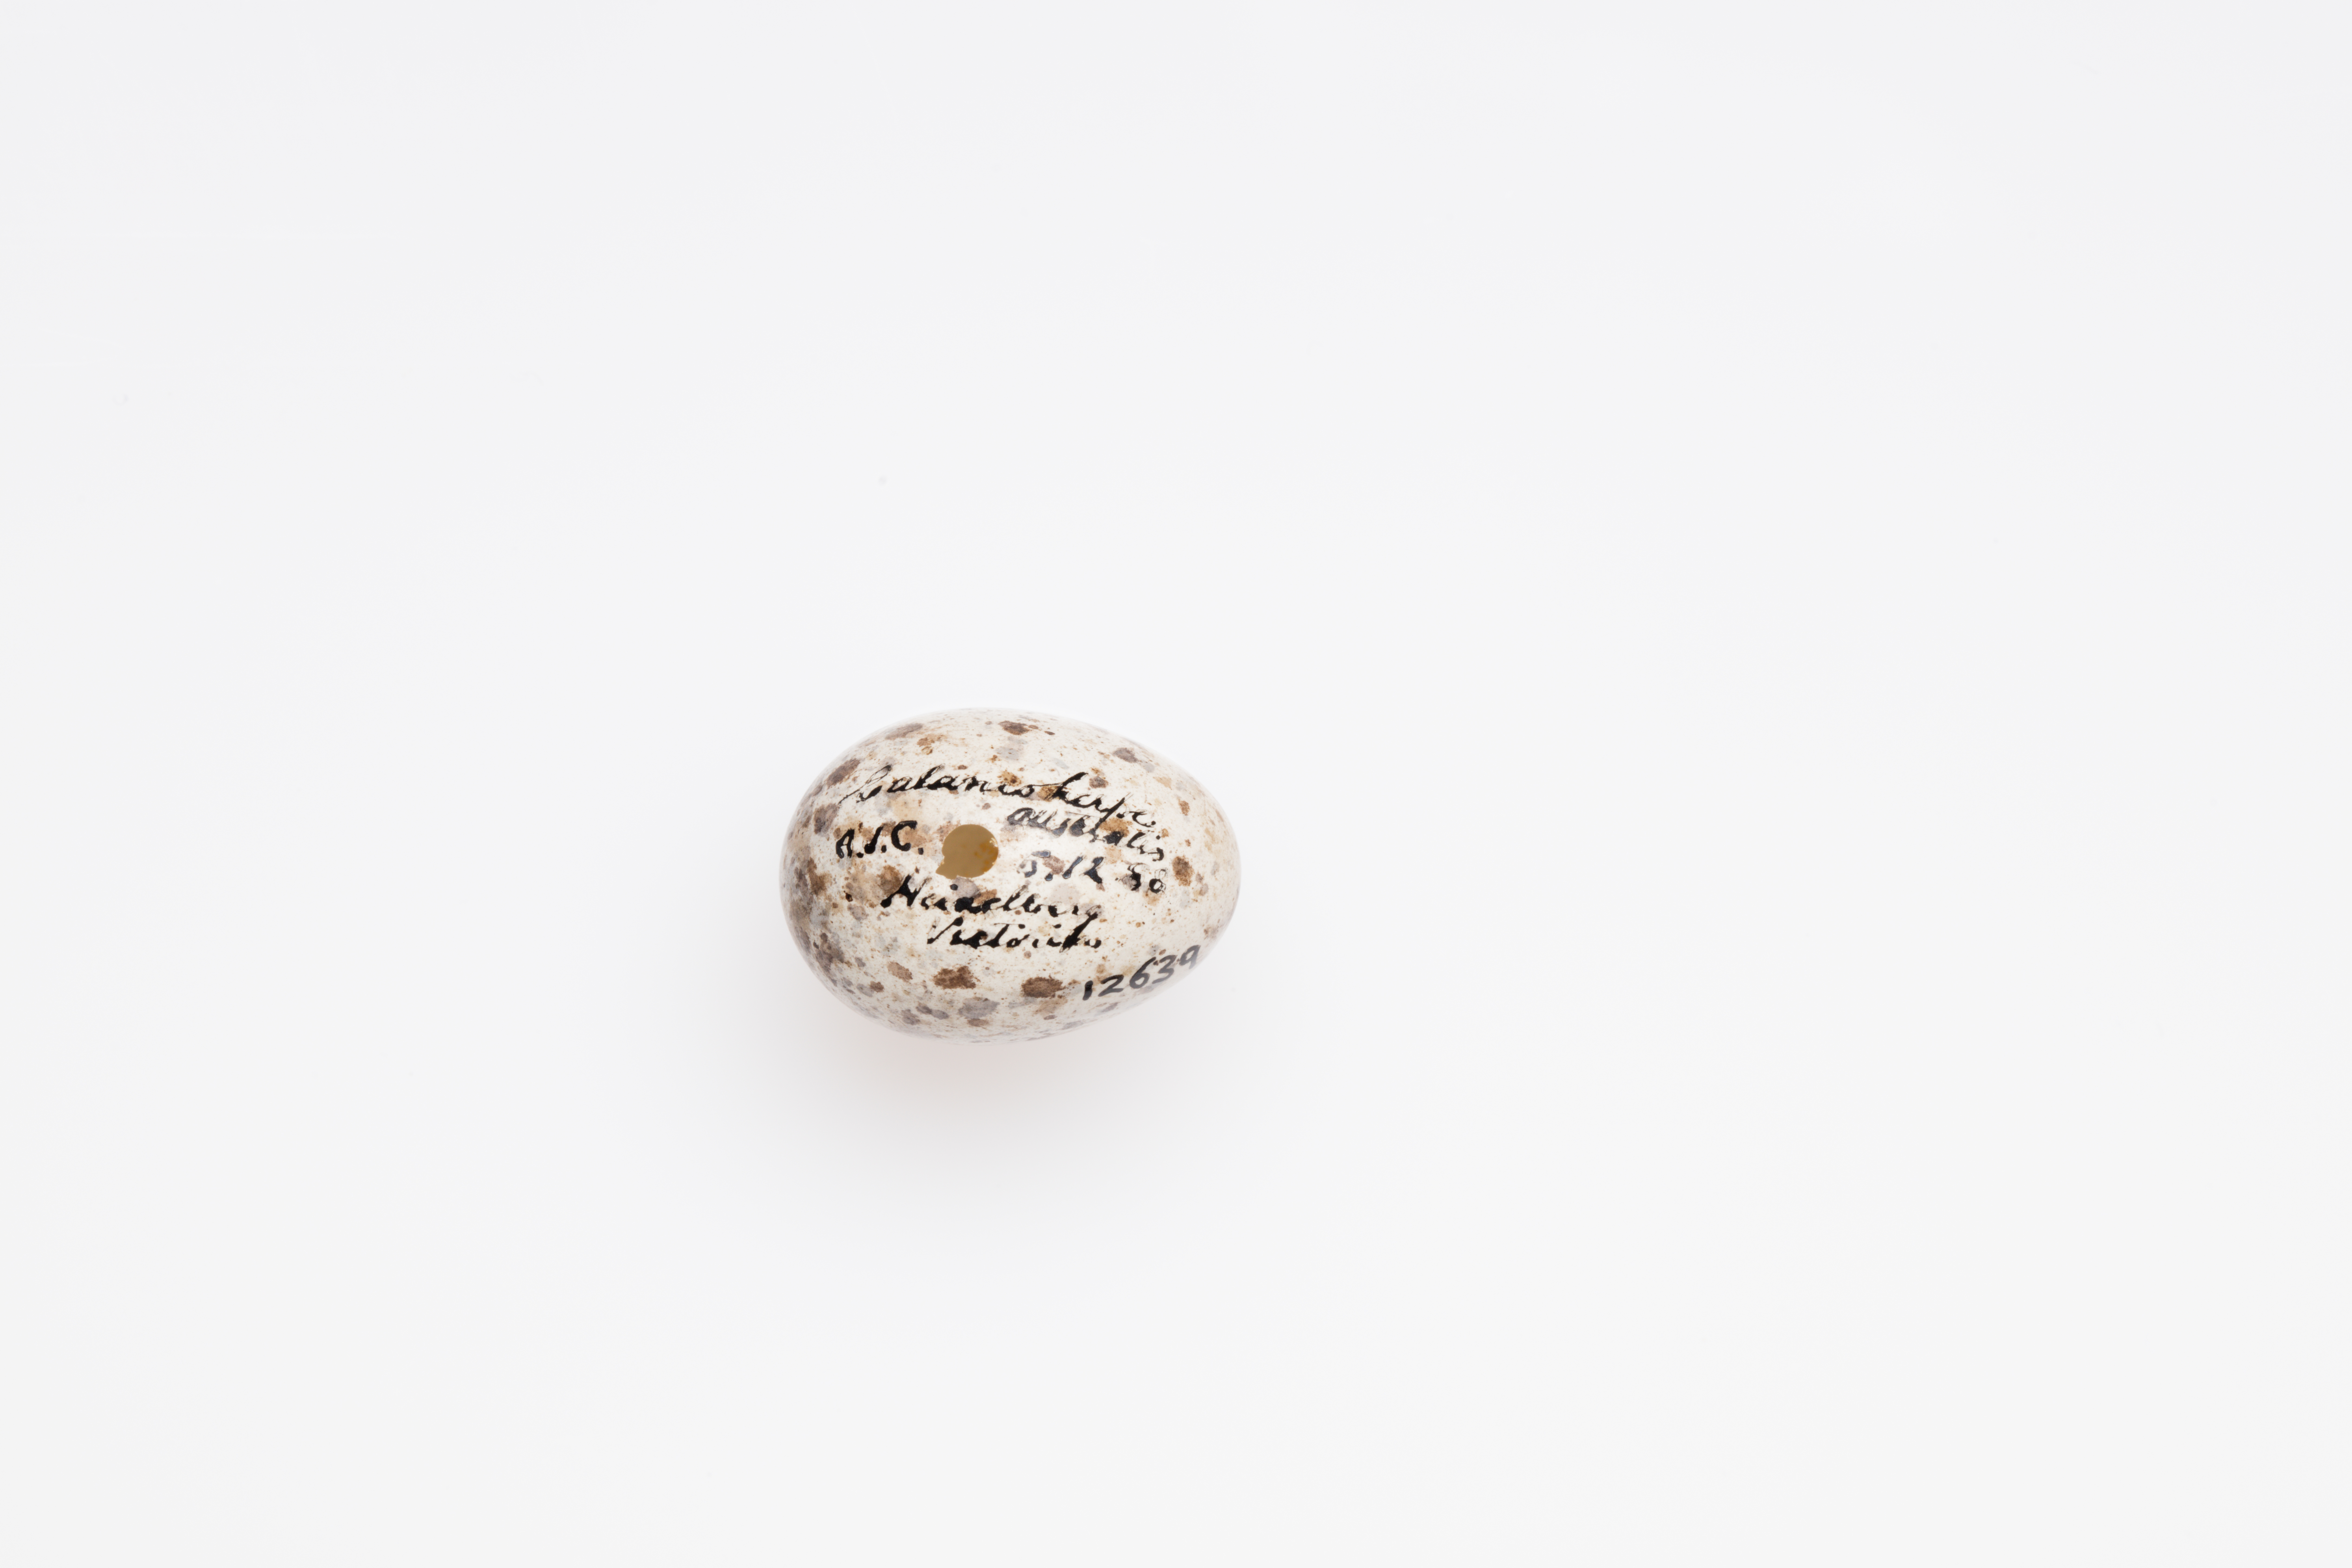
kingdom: Animalia
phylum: Chordata
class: Aves
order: Passeriformes
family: Acrocephalidae
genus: Acrocephalus
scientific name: Acrocephalus australis
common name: Australian reed warbler
